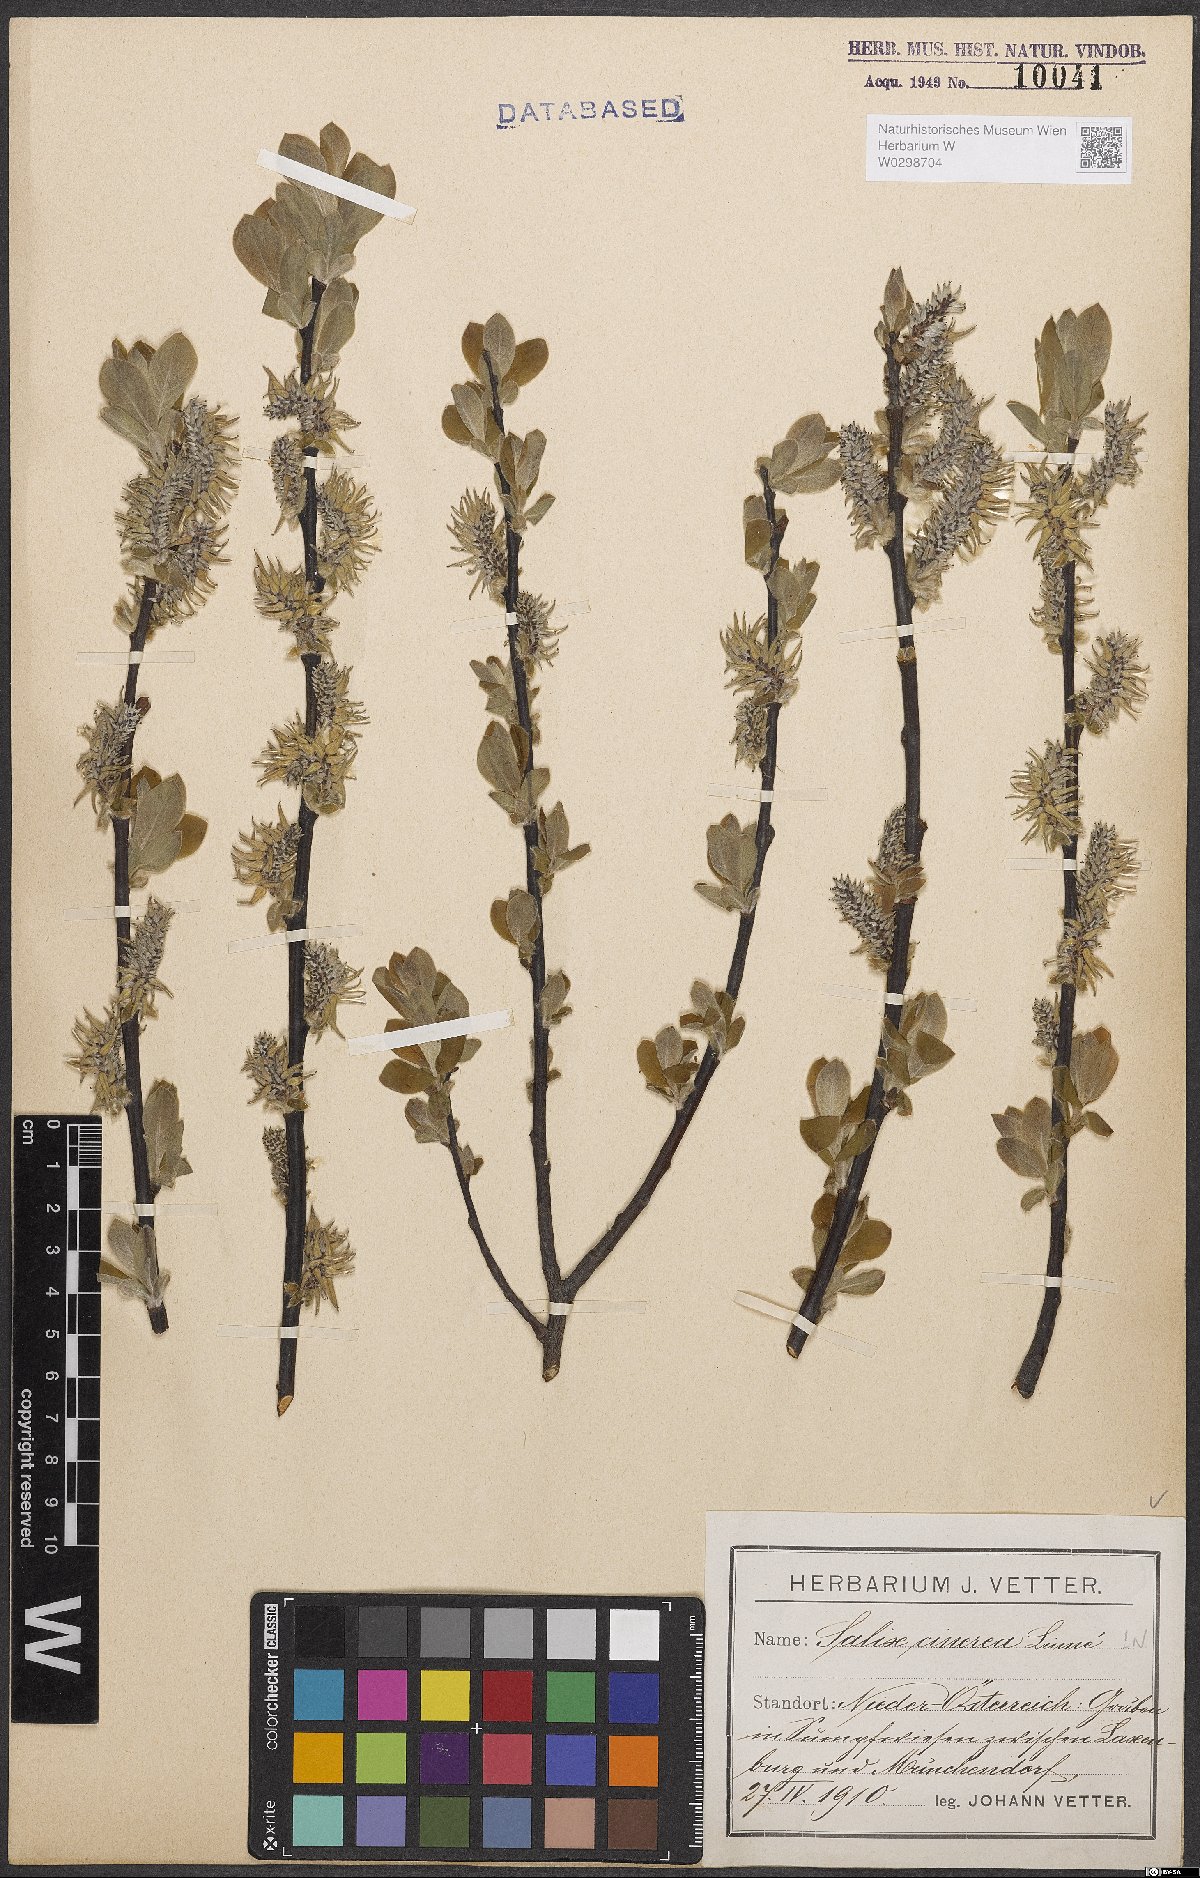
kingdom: Plantae
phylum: Tracheophyta
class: Magnoliopsida
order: Malpighiales
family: Salicaceae
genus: Salix
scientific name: Salix cinerea
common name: Common sallow
